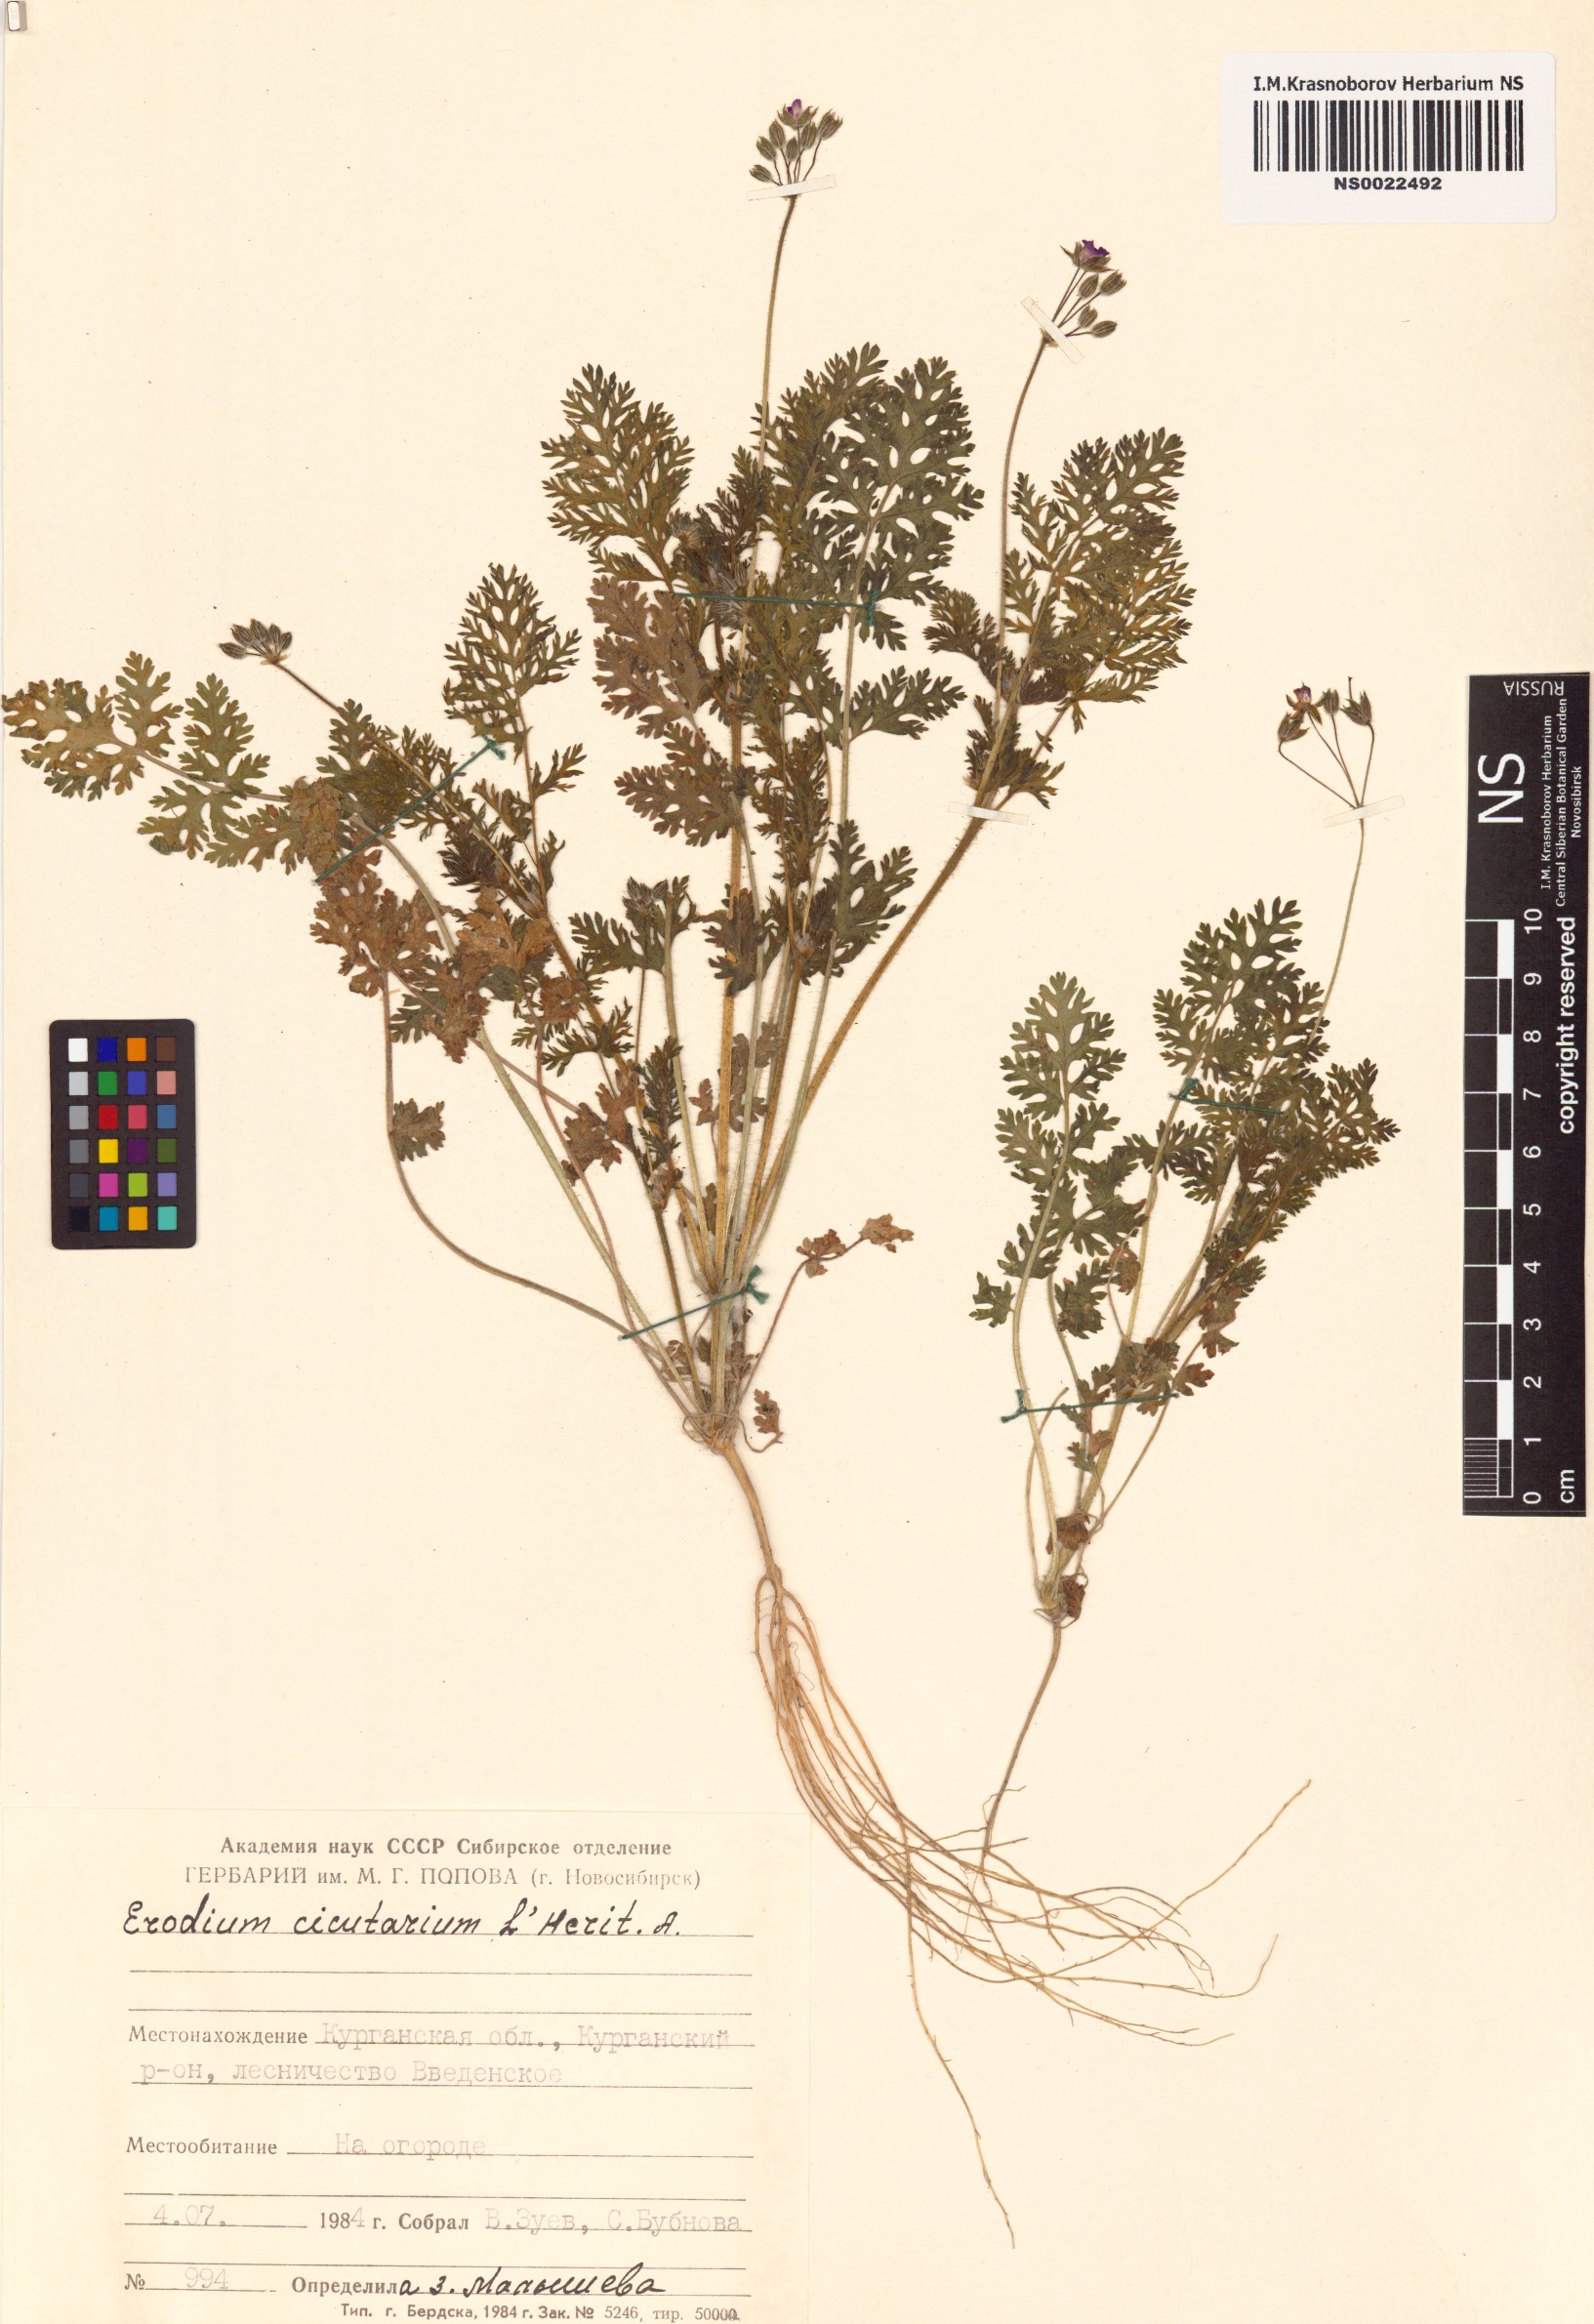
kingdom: Plantae
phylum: Tracheophyta
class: Magnoliopsida
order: Geraniales
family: Geraniaceae
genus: Erodium
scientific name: Erodium cicutarium
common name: Common stork's-bill
